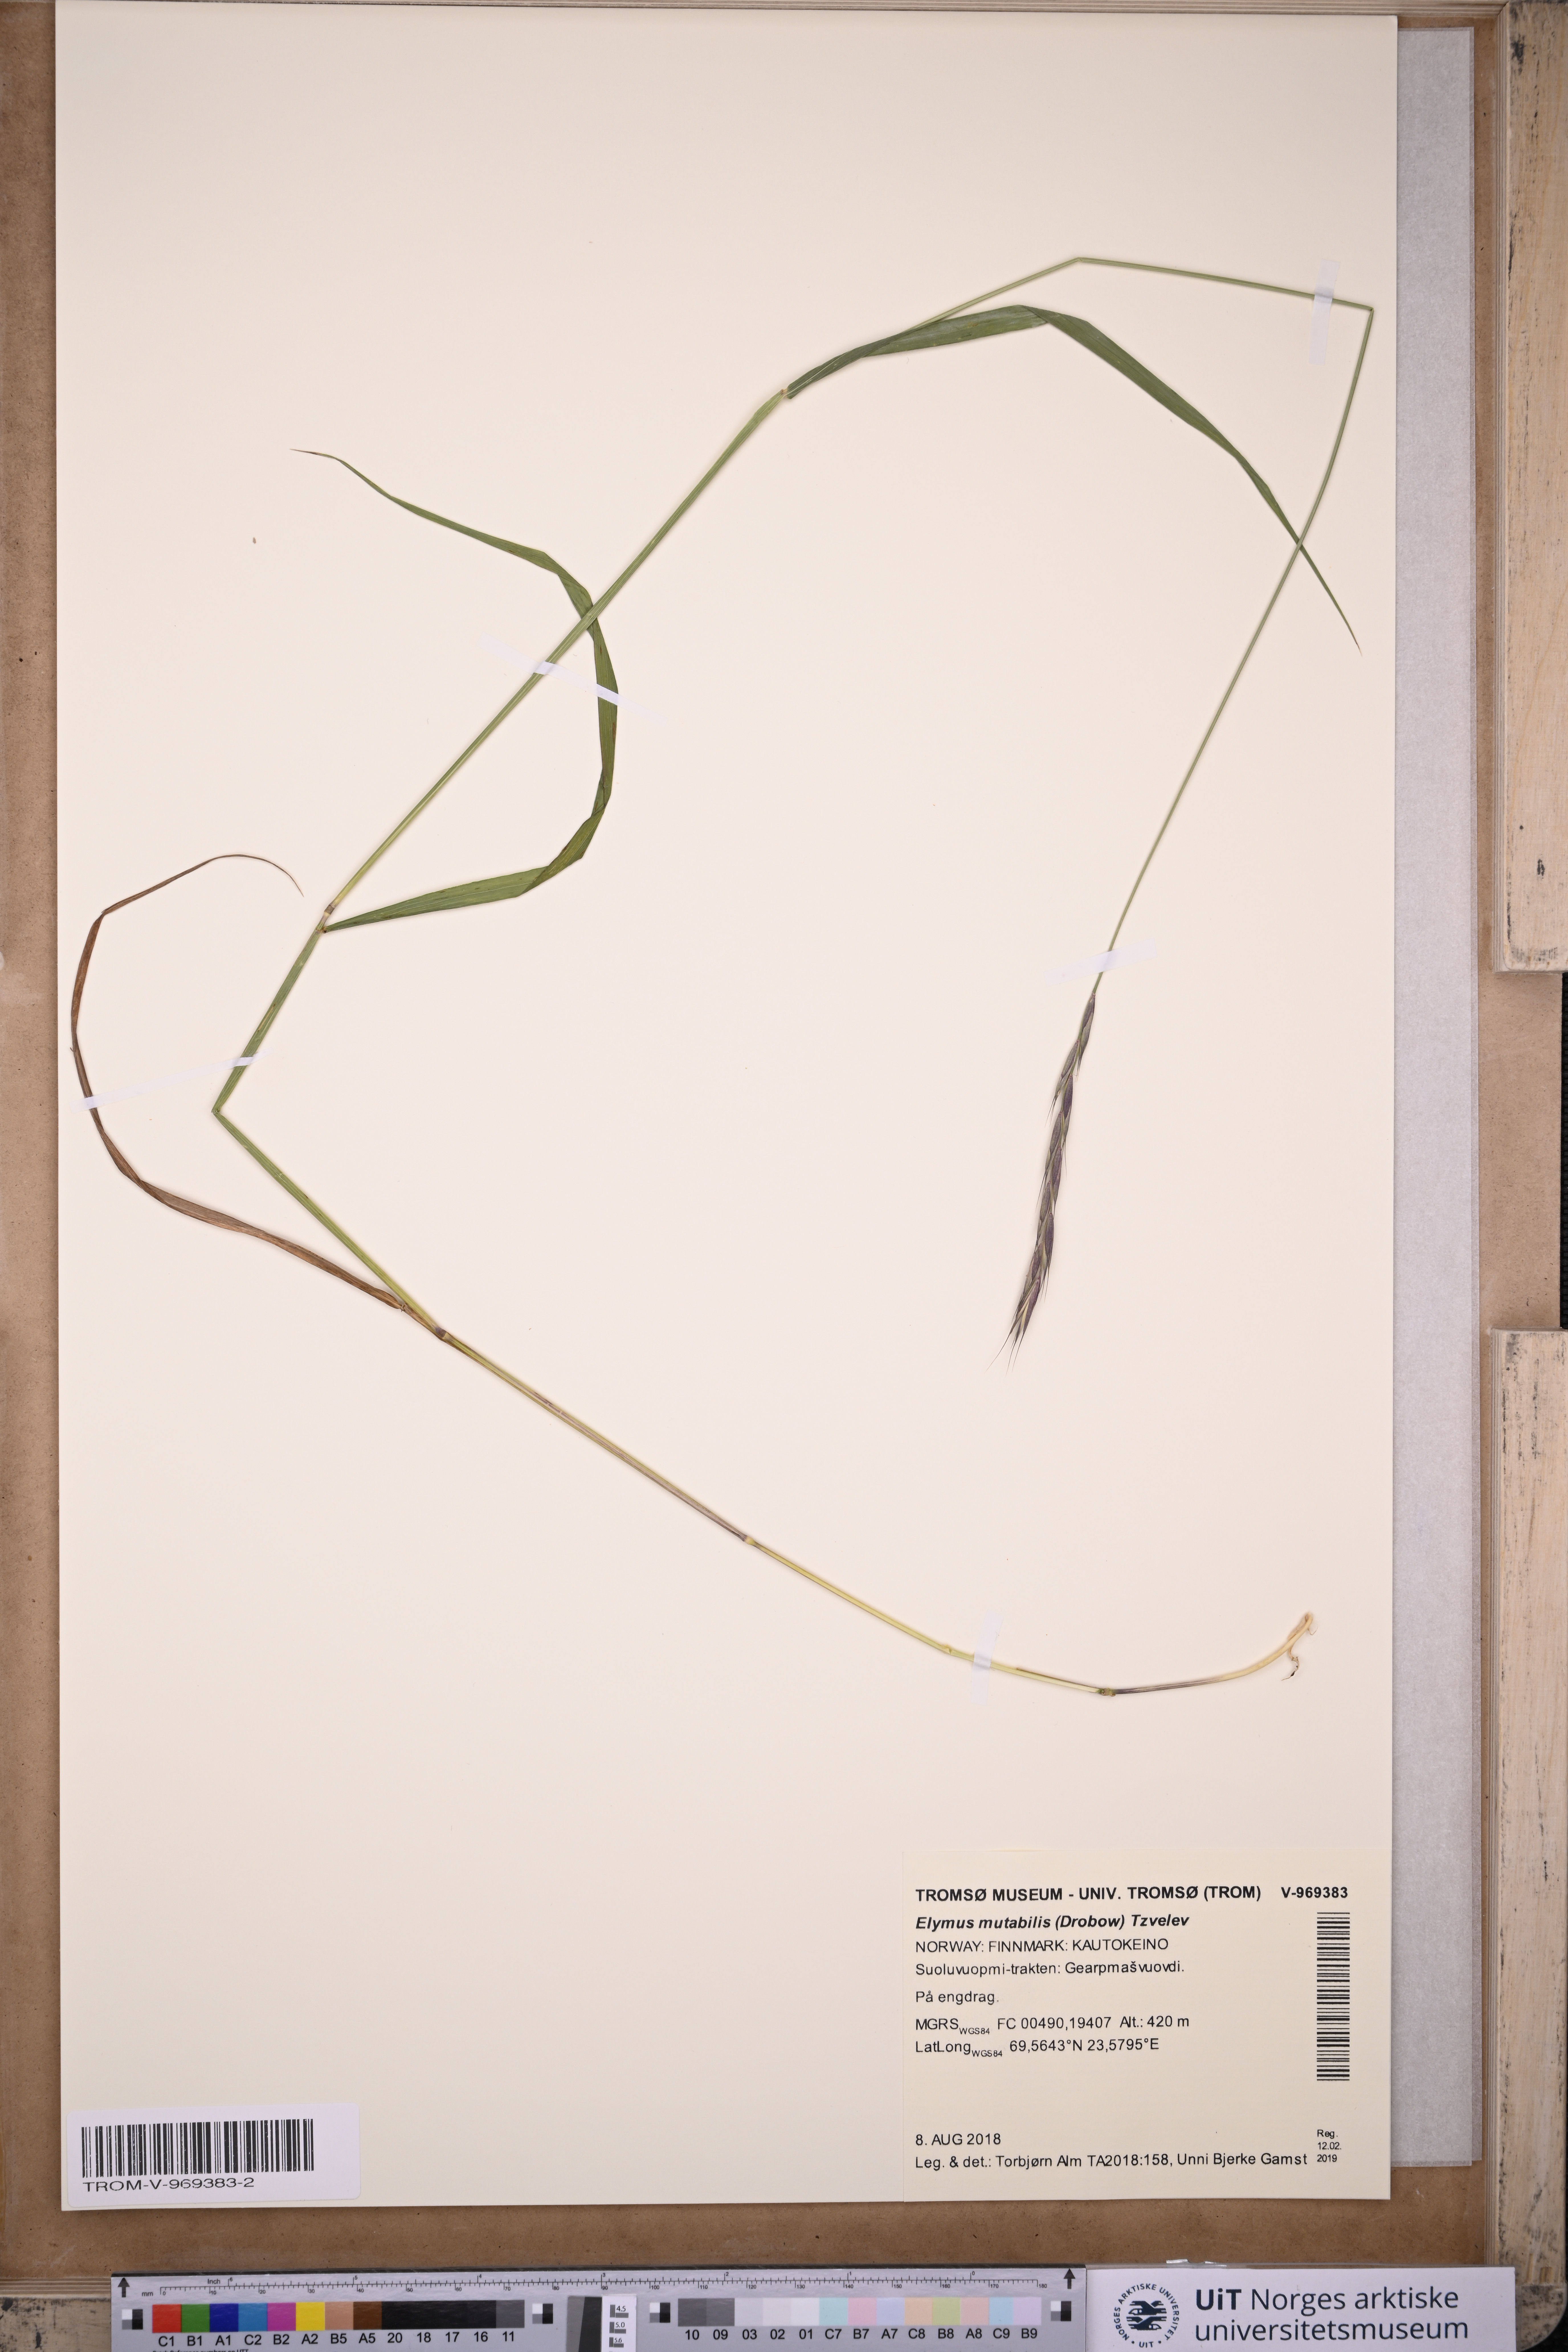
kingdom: Plantae
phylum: Tracheophyta
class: Liliopsida
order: Poales
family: Poaceae
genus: Elymus
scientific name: Elymus mutabilis
